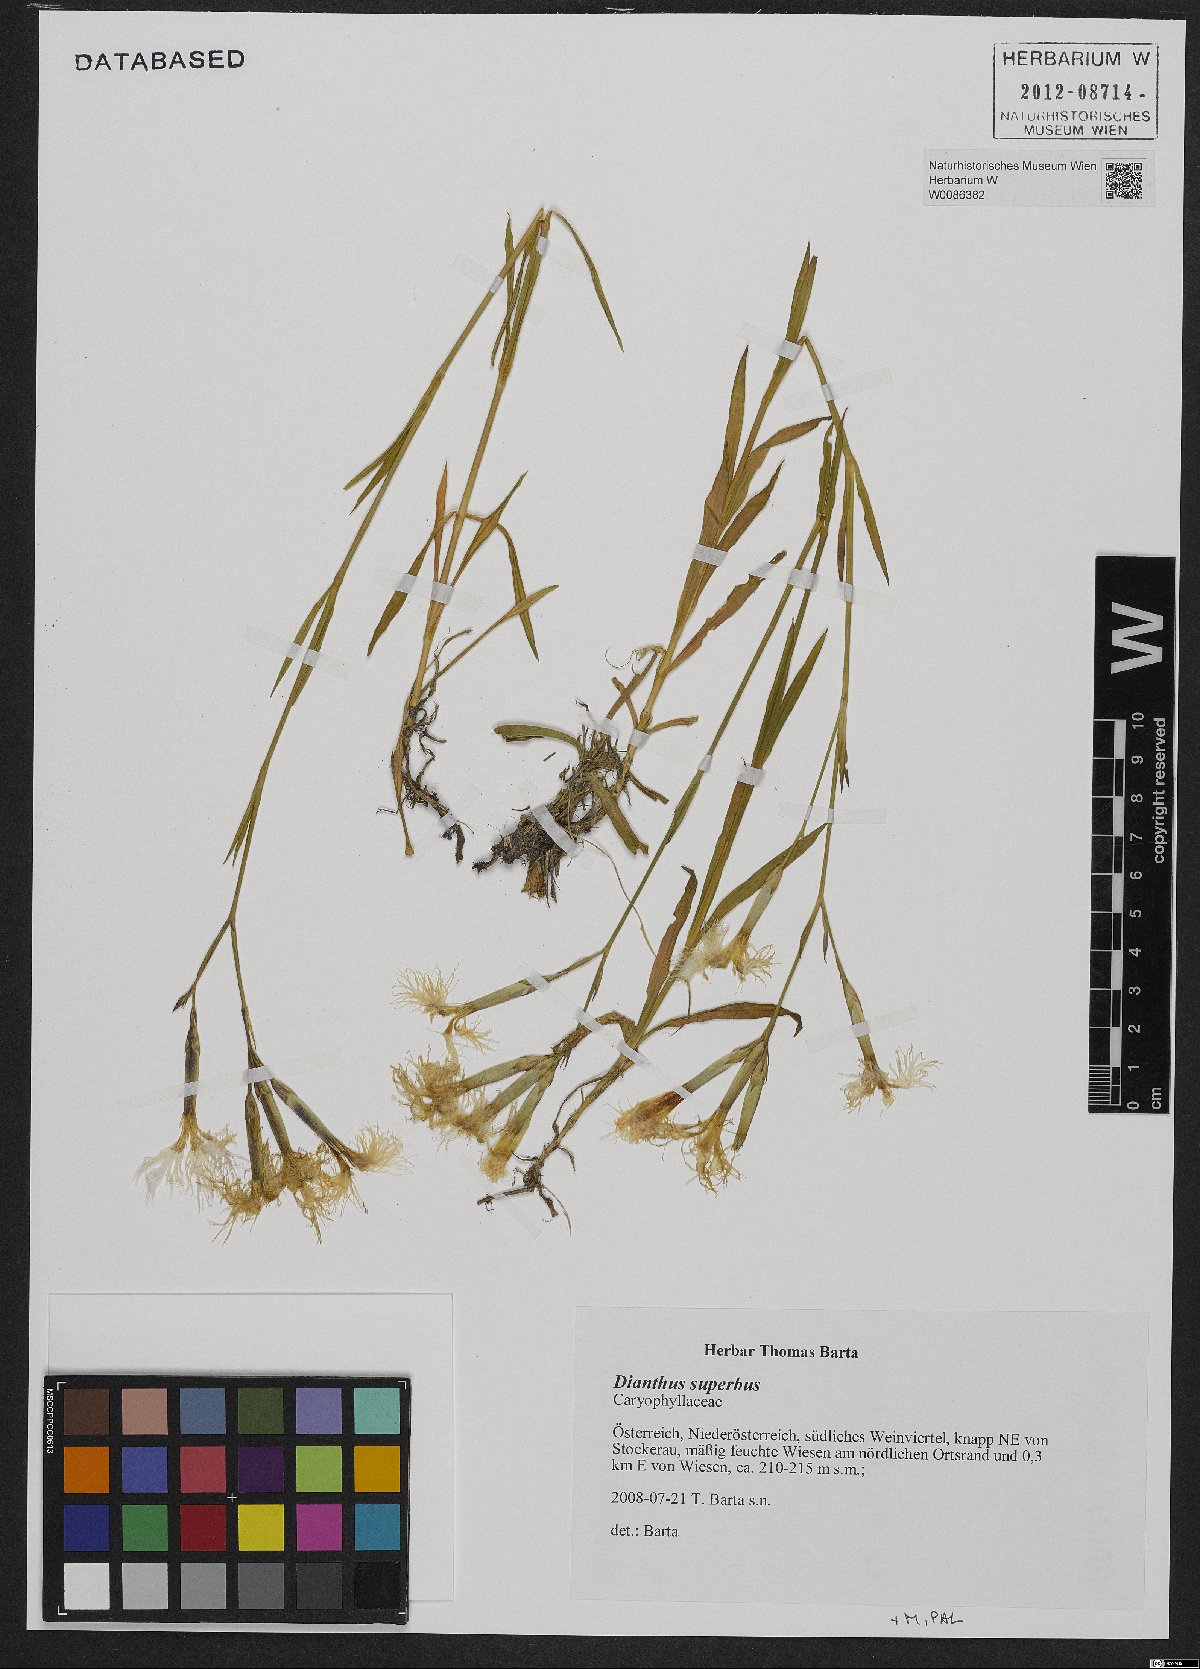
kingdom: Plantae
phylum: Tracheophyta
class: Magnoliopsida
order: Caryophyllales
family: Caryophyllaceae
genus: Dianthus
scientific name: Dianthus superbus
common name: Fringed pink
